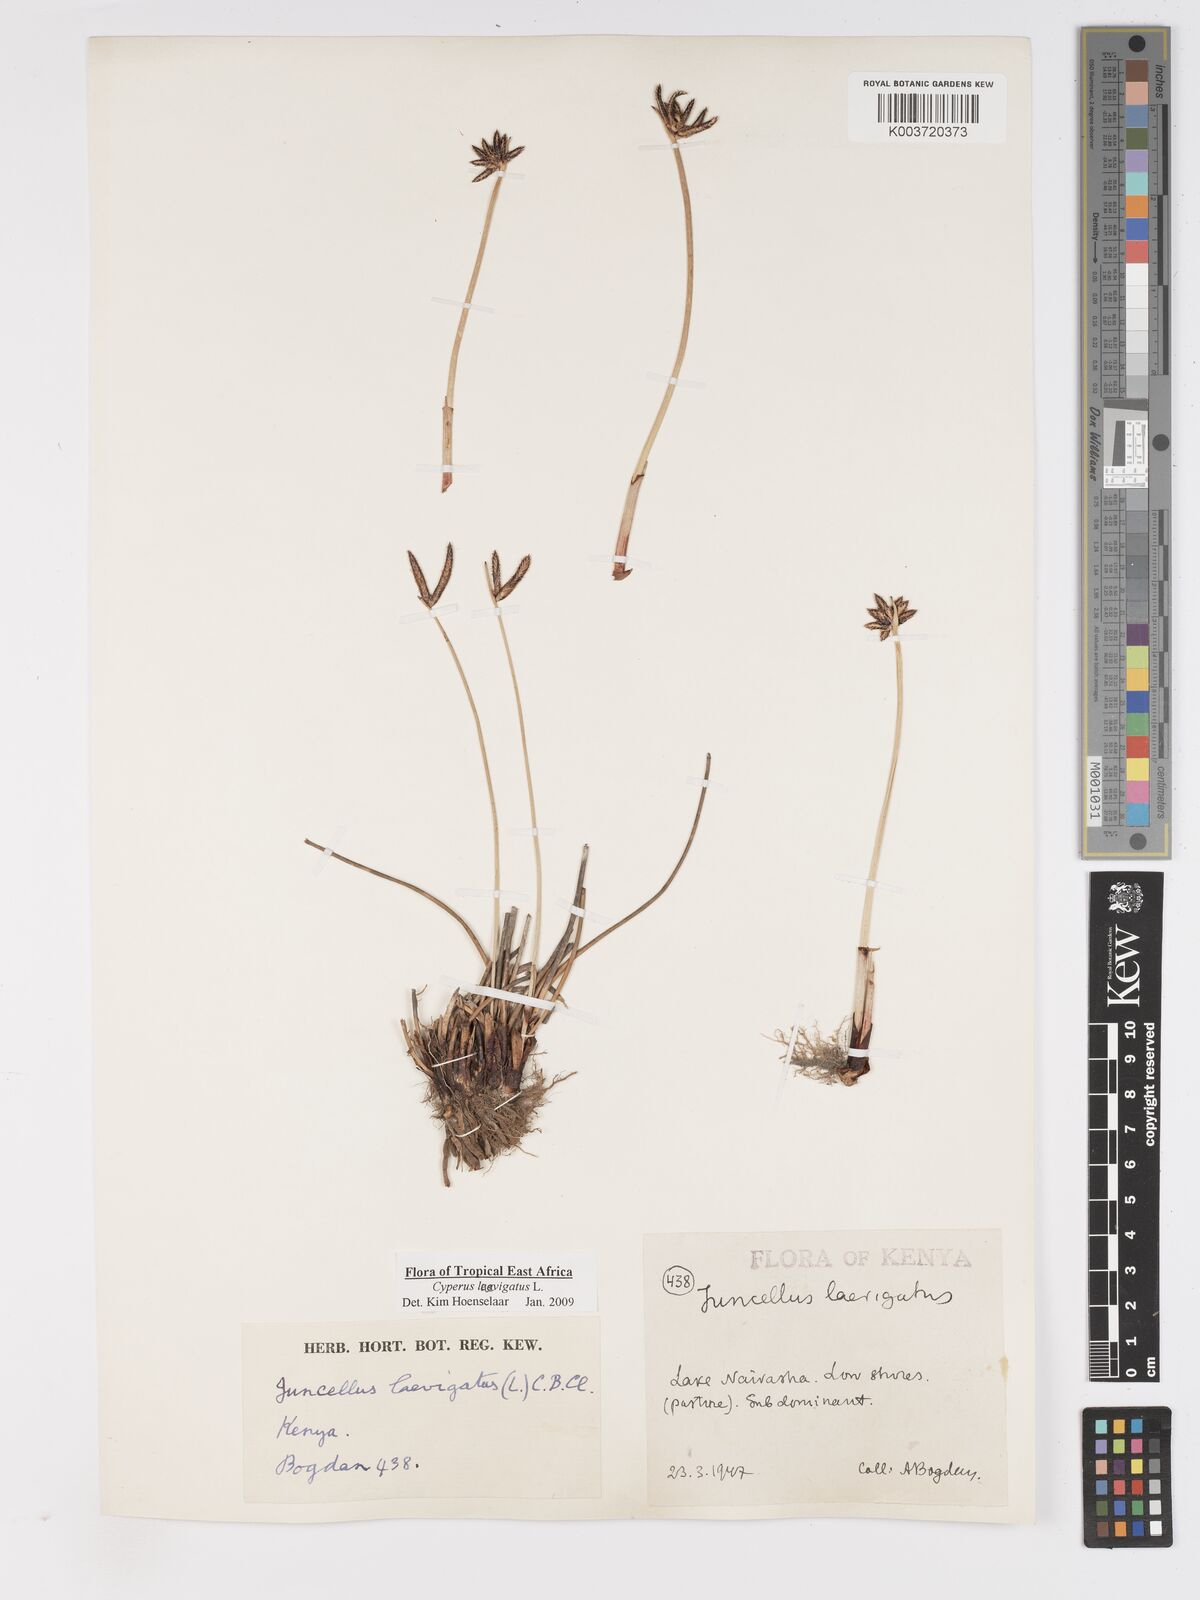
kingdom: Plantae
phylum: Tracheophyta
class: Liliopsida
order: Poales
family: Cyperaceae
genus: Cyperus
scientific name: Cyperus laevigatus
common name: Smooth flat sedge
